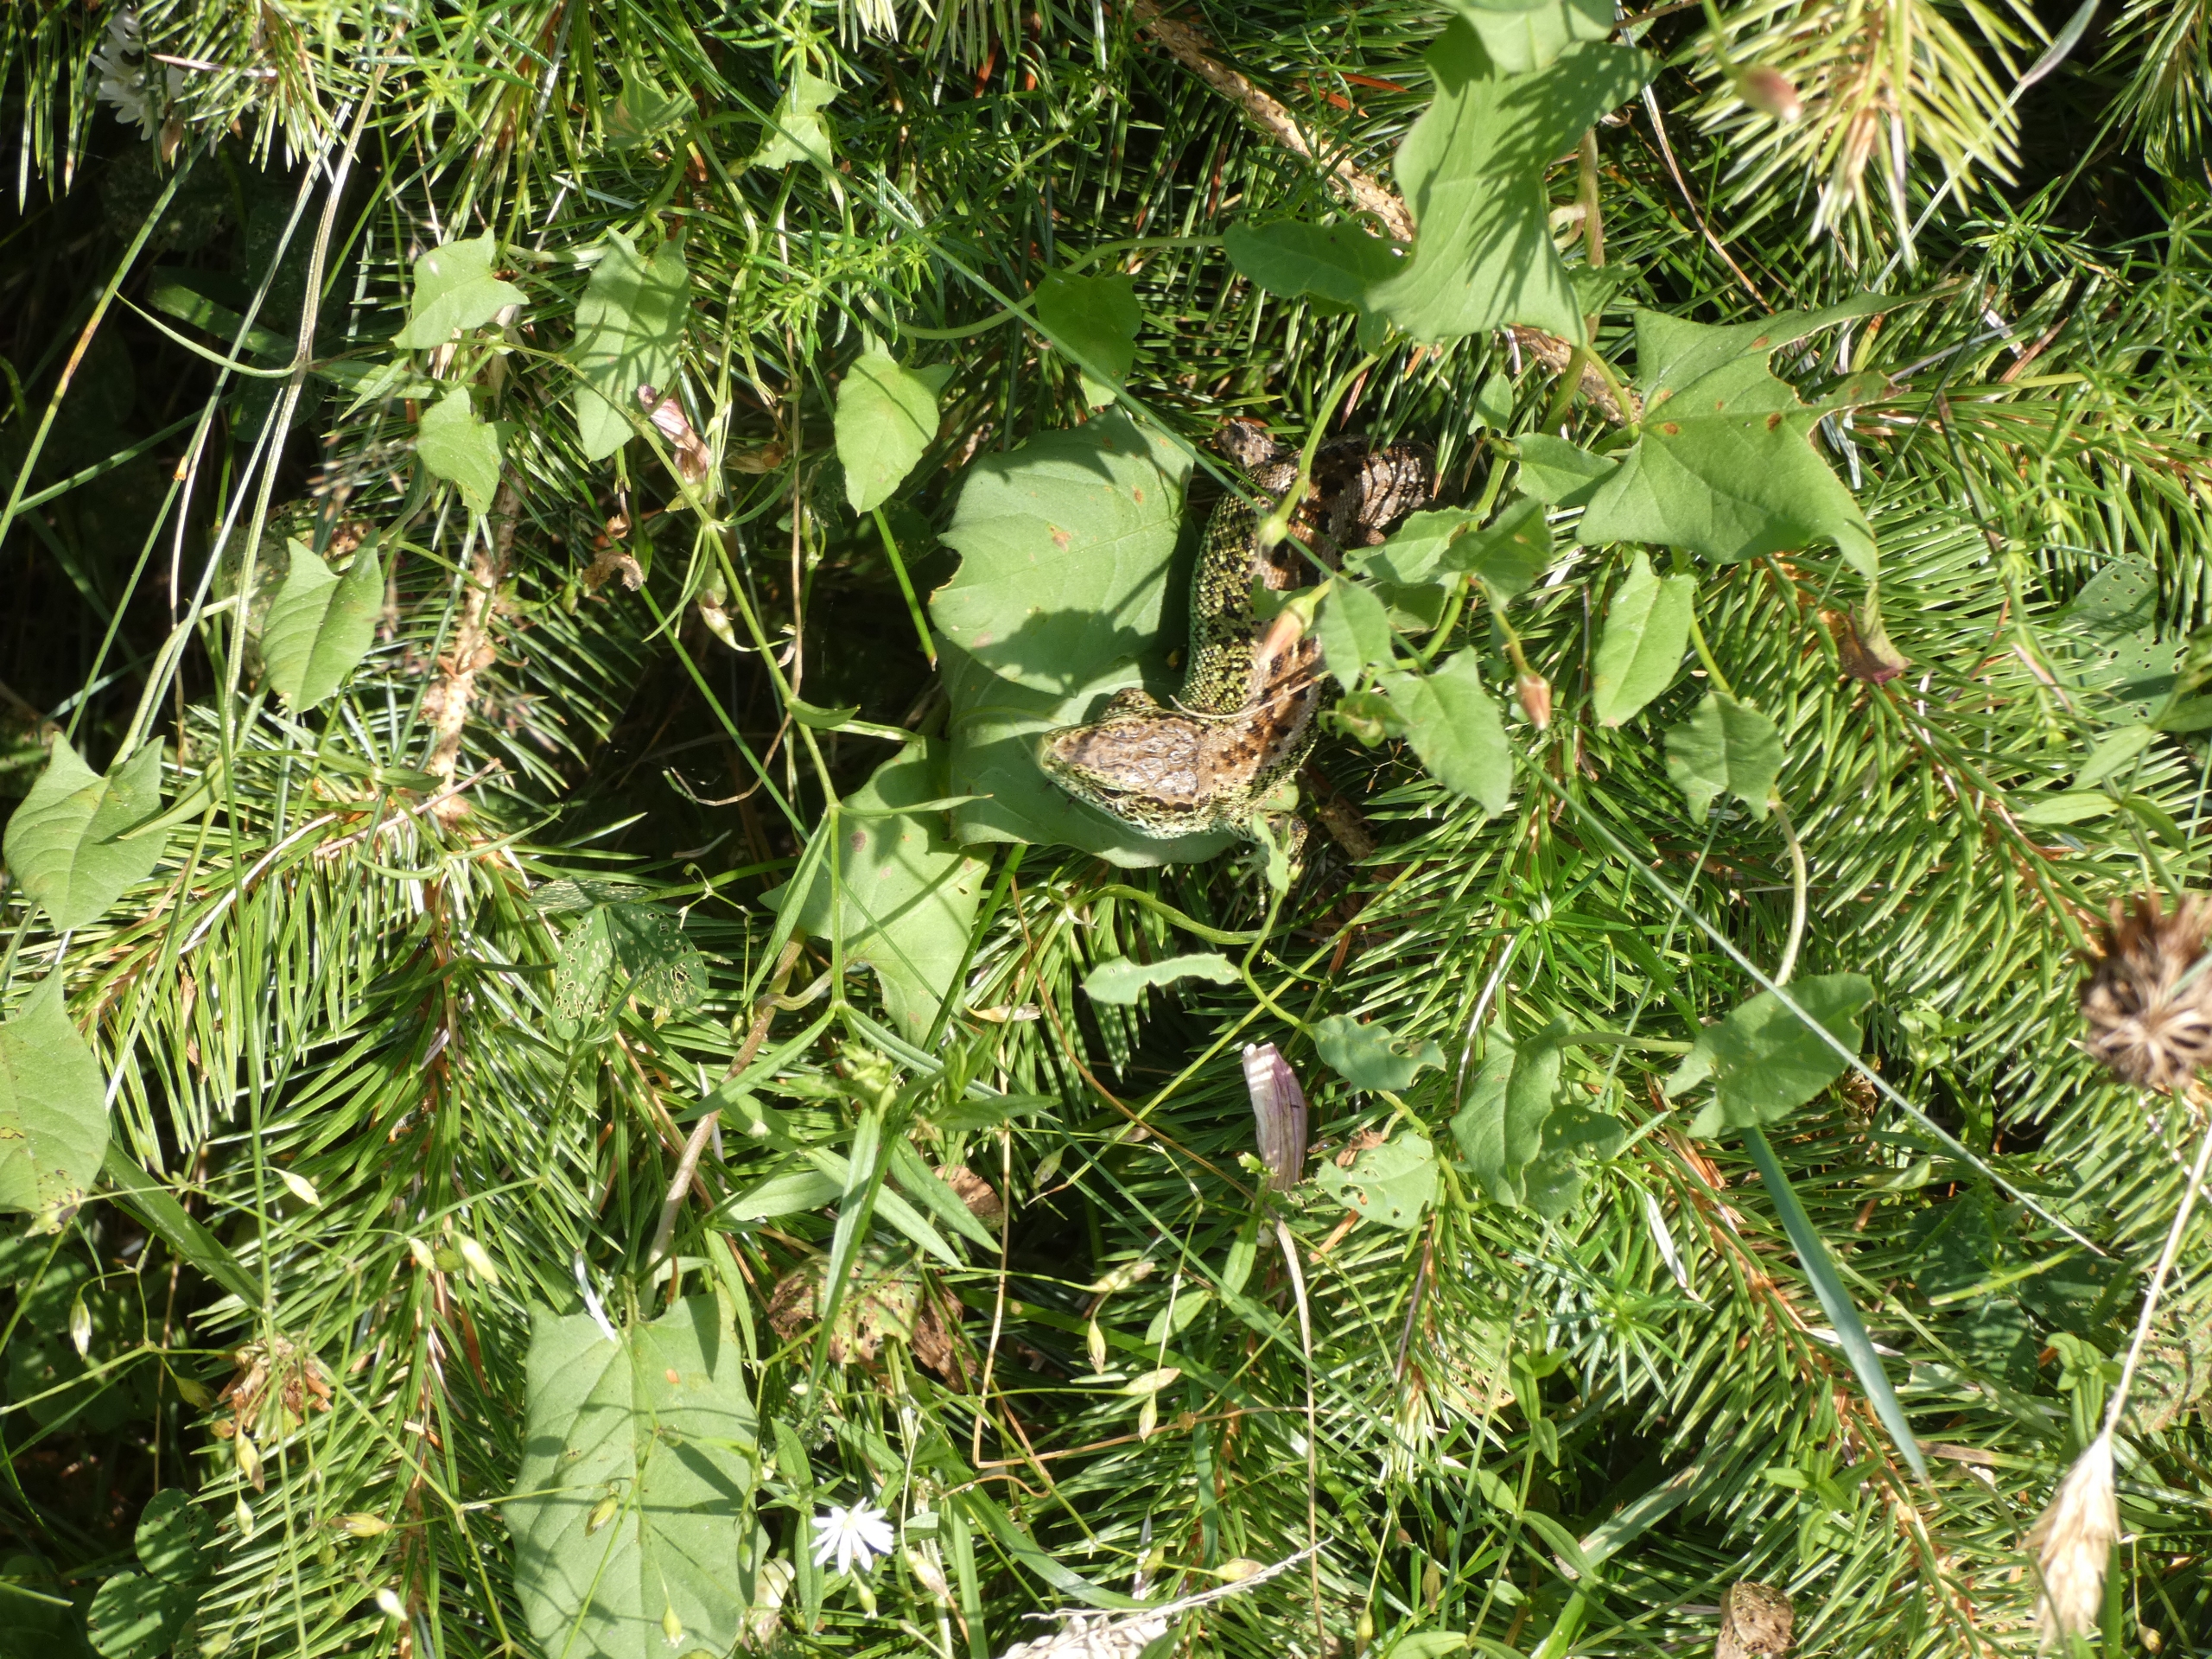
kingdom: Animalia
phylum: Chordata
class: Squamata
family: Lacertidae
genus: Lacerta
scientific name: Lacerta agilis
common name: Markfirben
